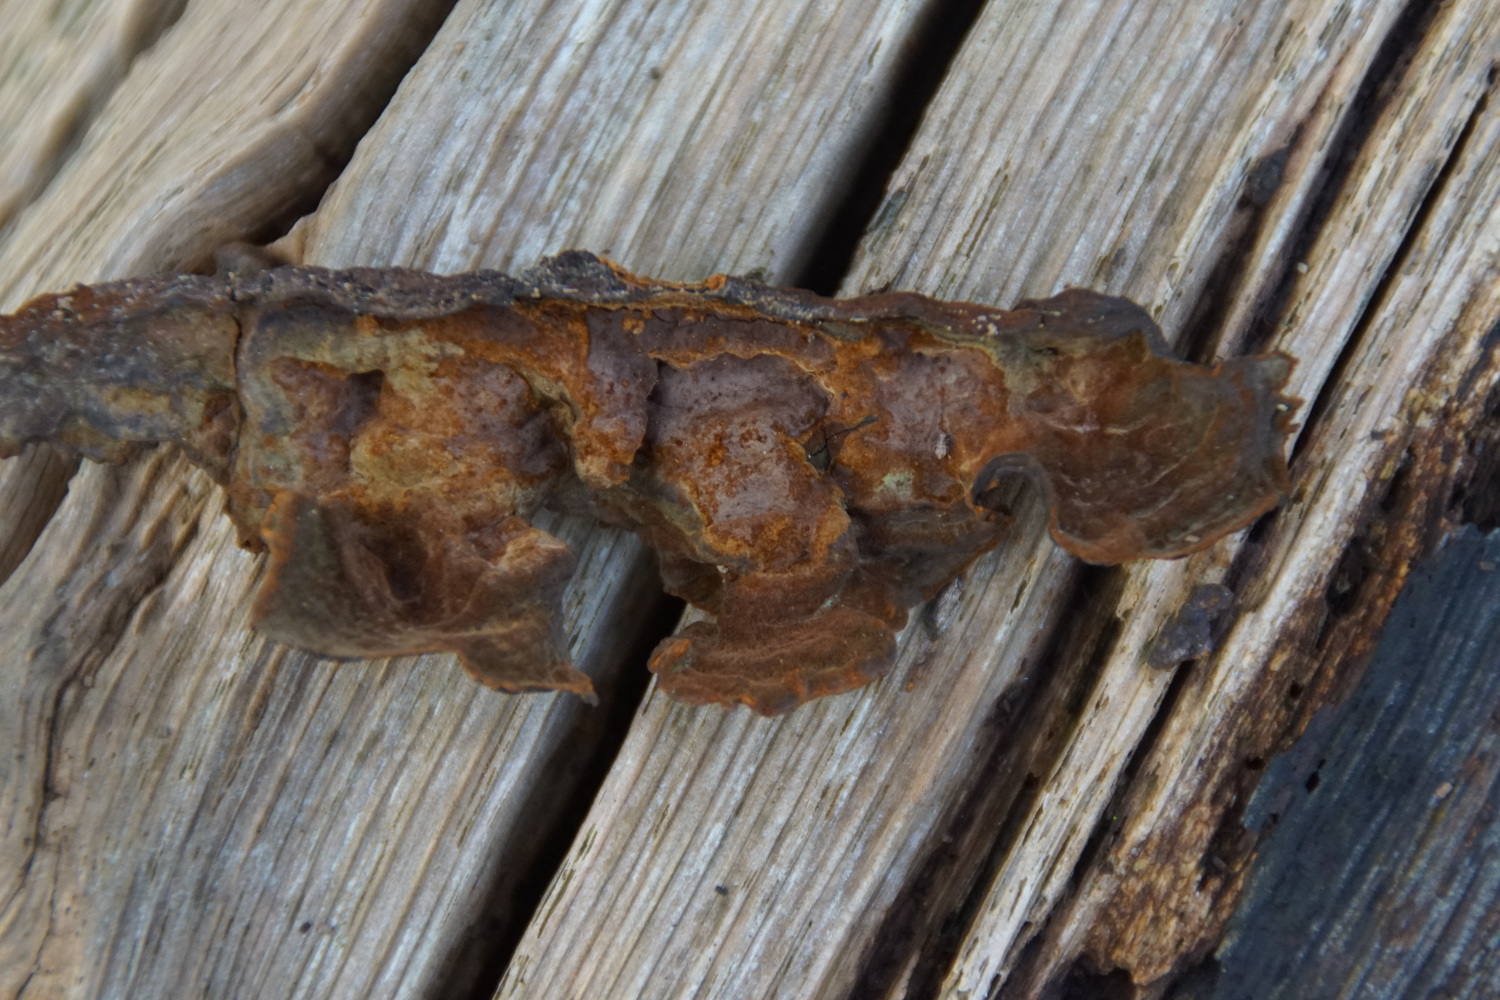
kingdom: Fungi
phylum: Basidiomycota
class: Agaricomycetes
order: Hymenochaetales
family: Hymenochaetaceae
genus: Hymenochaete
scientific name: Hymenochaete rubiginosa
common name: stiv ruslædersvamp
